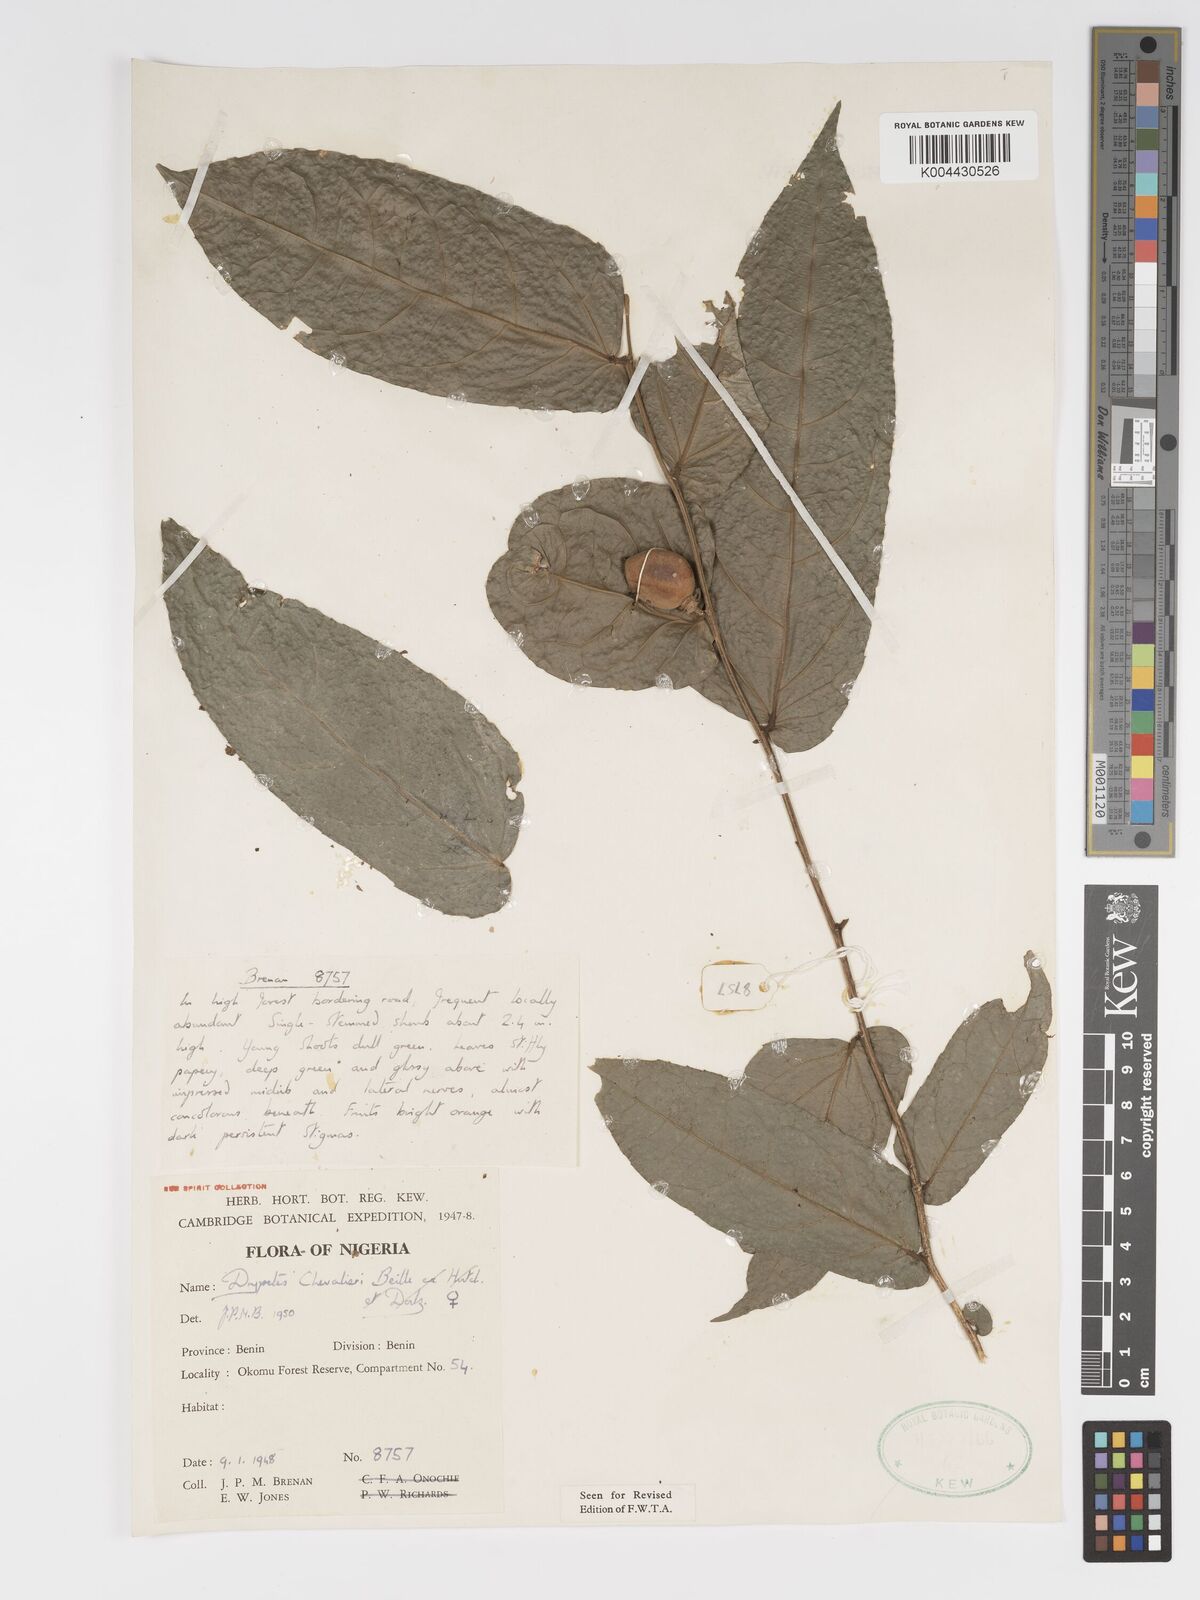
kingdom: Plantae
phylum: Tracheophyta
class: Magnoliopsida
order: Malpighiales
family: Putranjivaceae
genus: Drypetes
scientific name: Drypetes chevalieri
